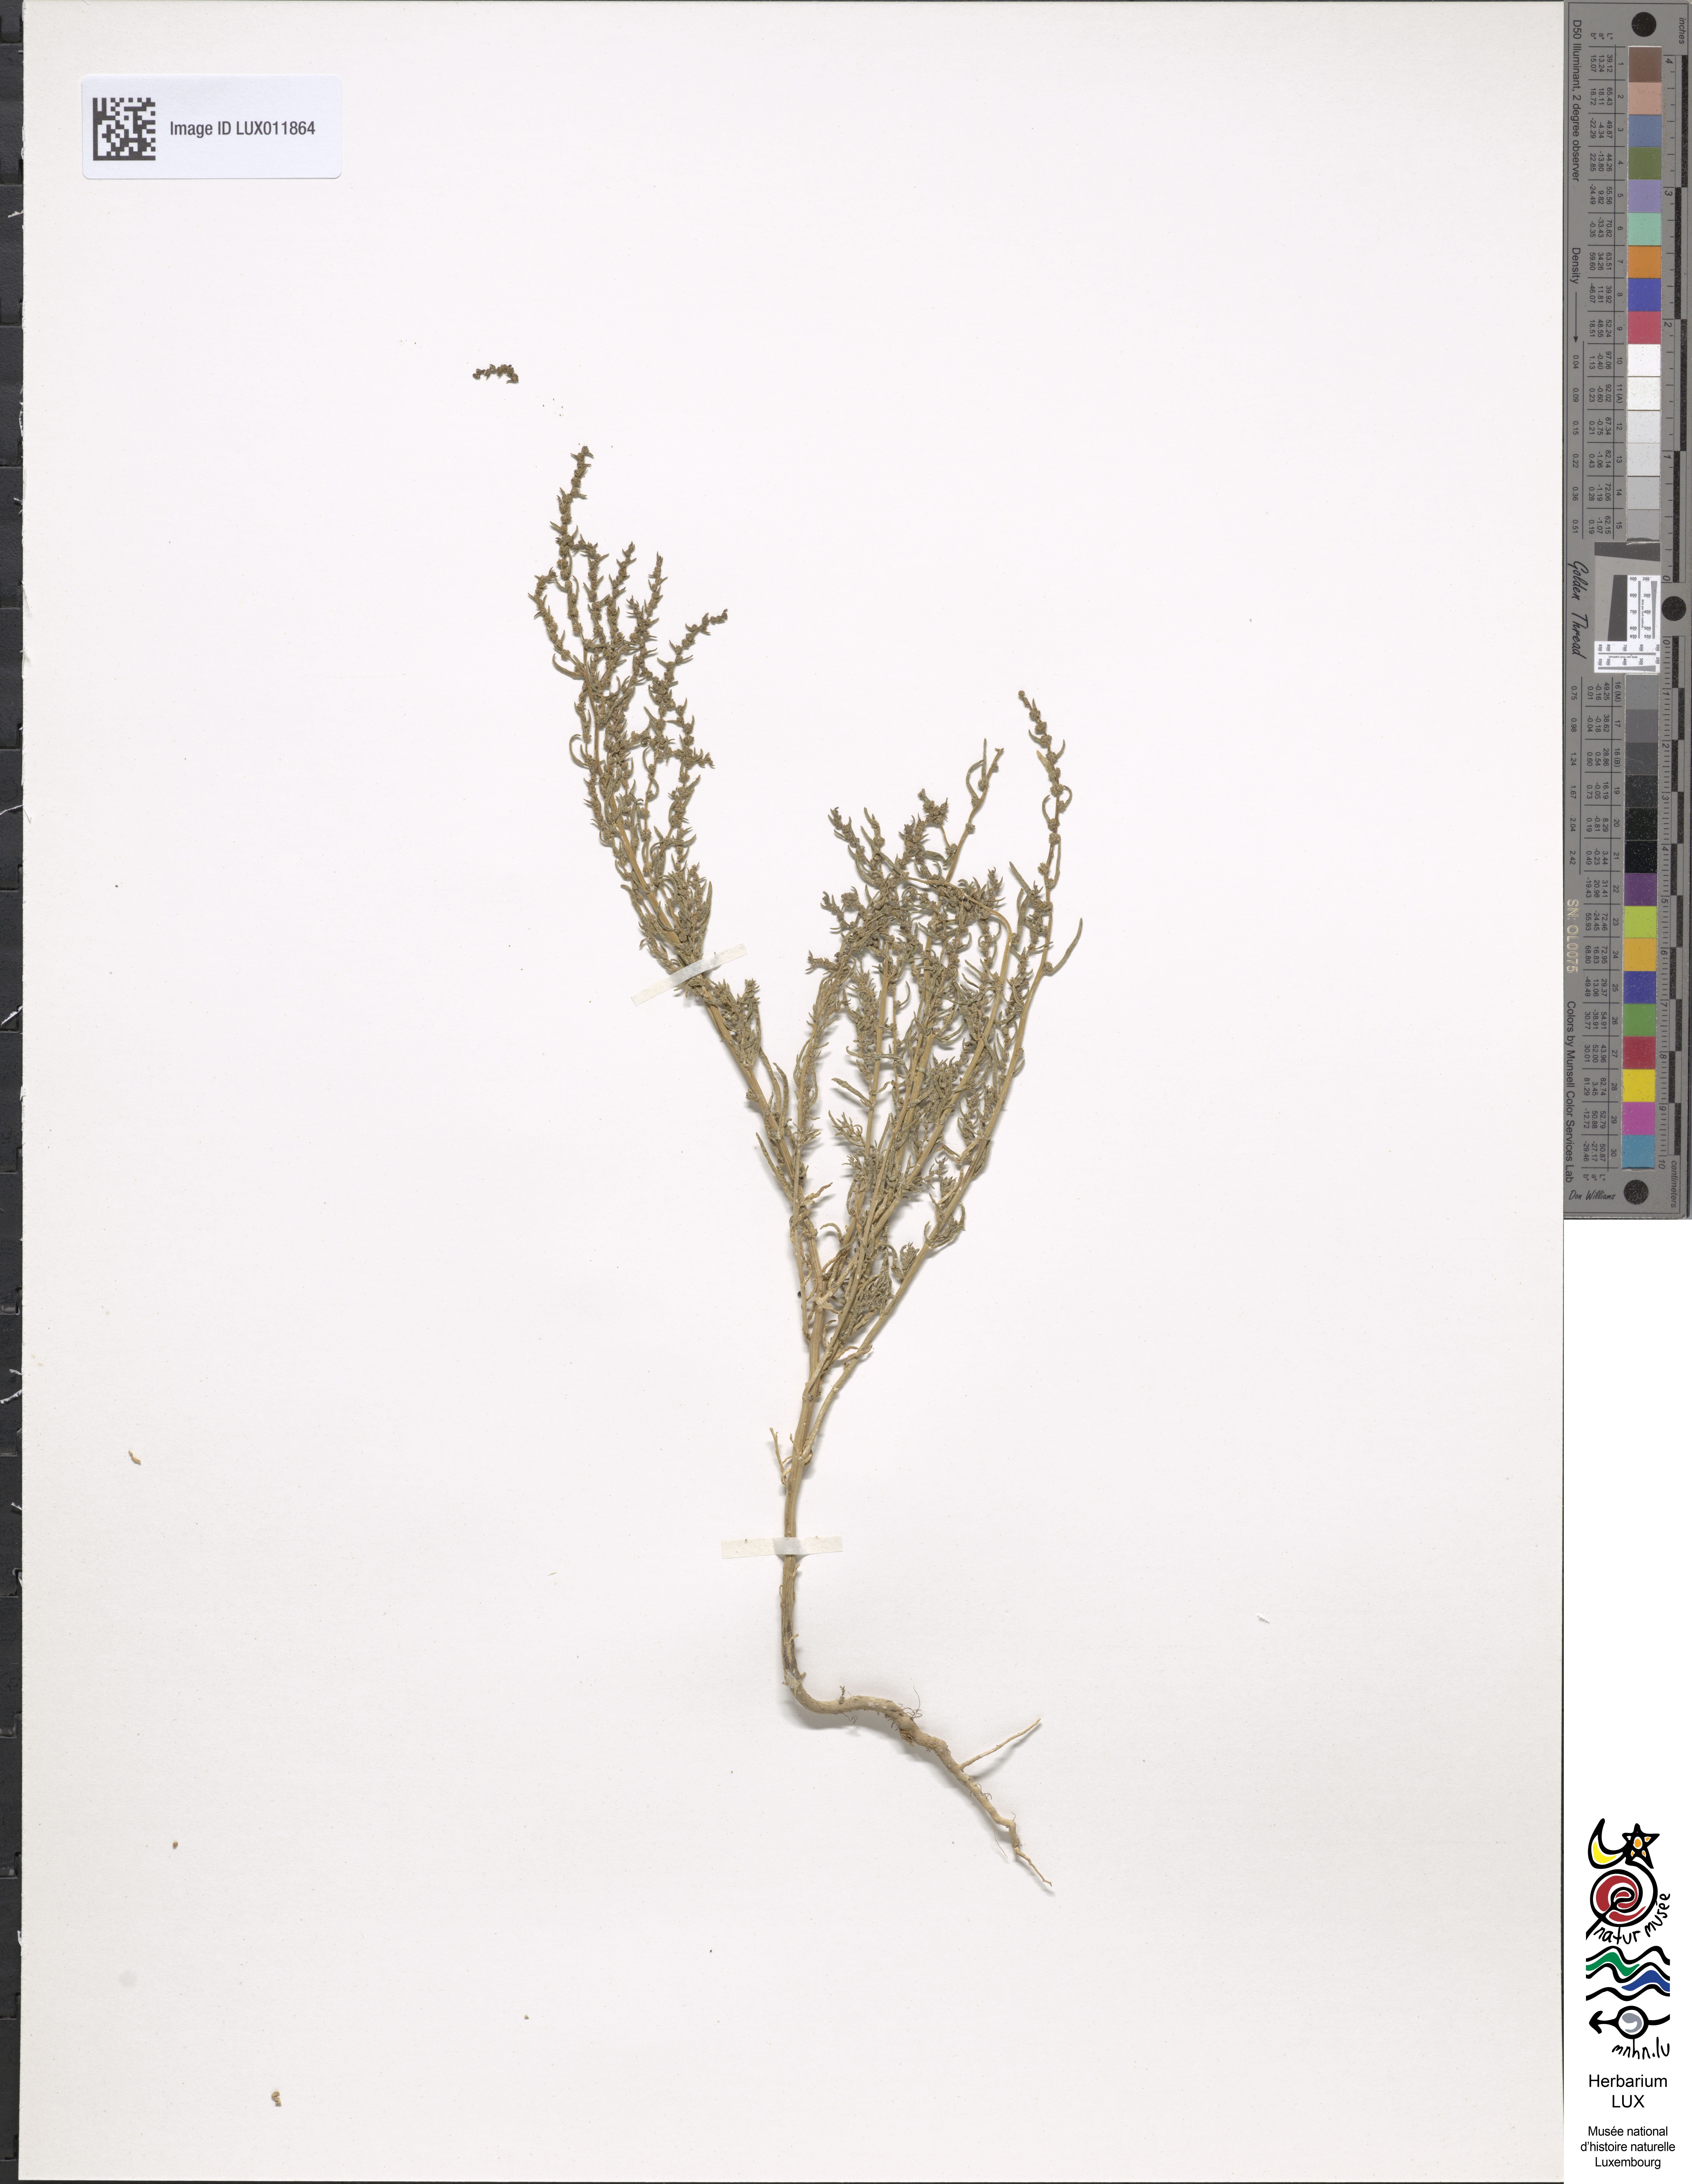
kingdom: Plantae
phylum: Tracheophyta
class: Magnoliopsida
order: Caryophyllales
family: Amaranthaceae
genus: Suaeda
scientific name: Suaeda maritima
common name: Annual sea-blite
